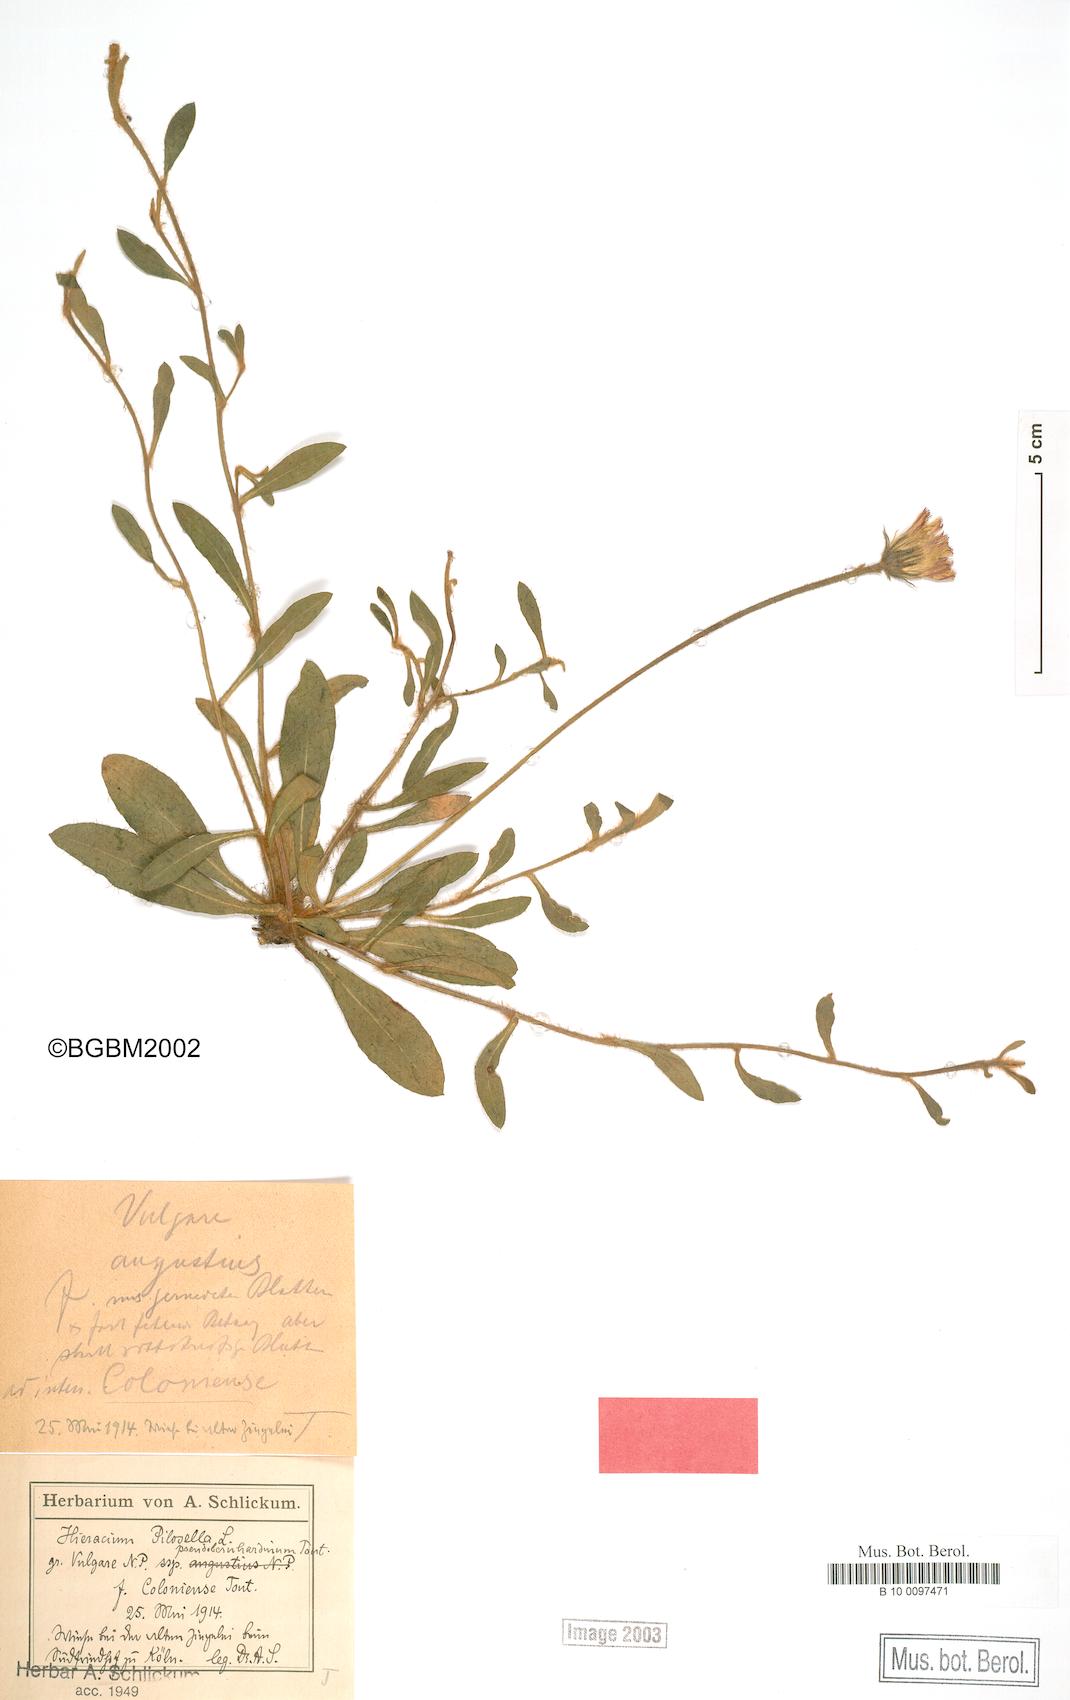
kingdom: Plantae
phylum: Tracheophyta
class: Magnoliopsida
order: Asterales
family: Asteraceae
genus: Pilosella
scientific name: Pilosella officinarum
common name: Mouse-ear hawkweed
